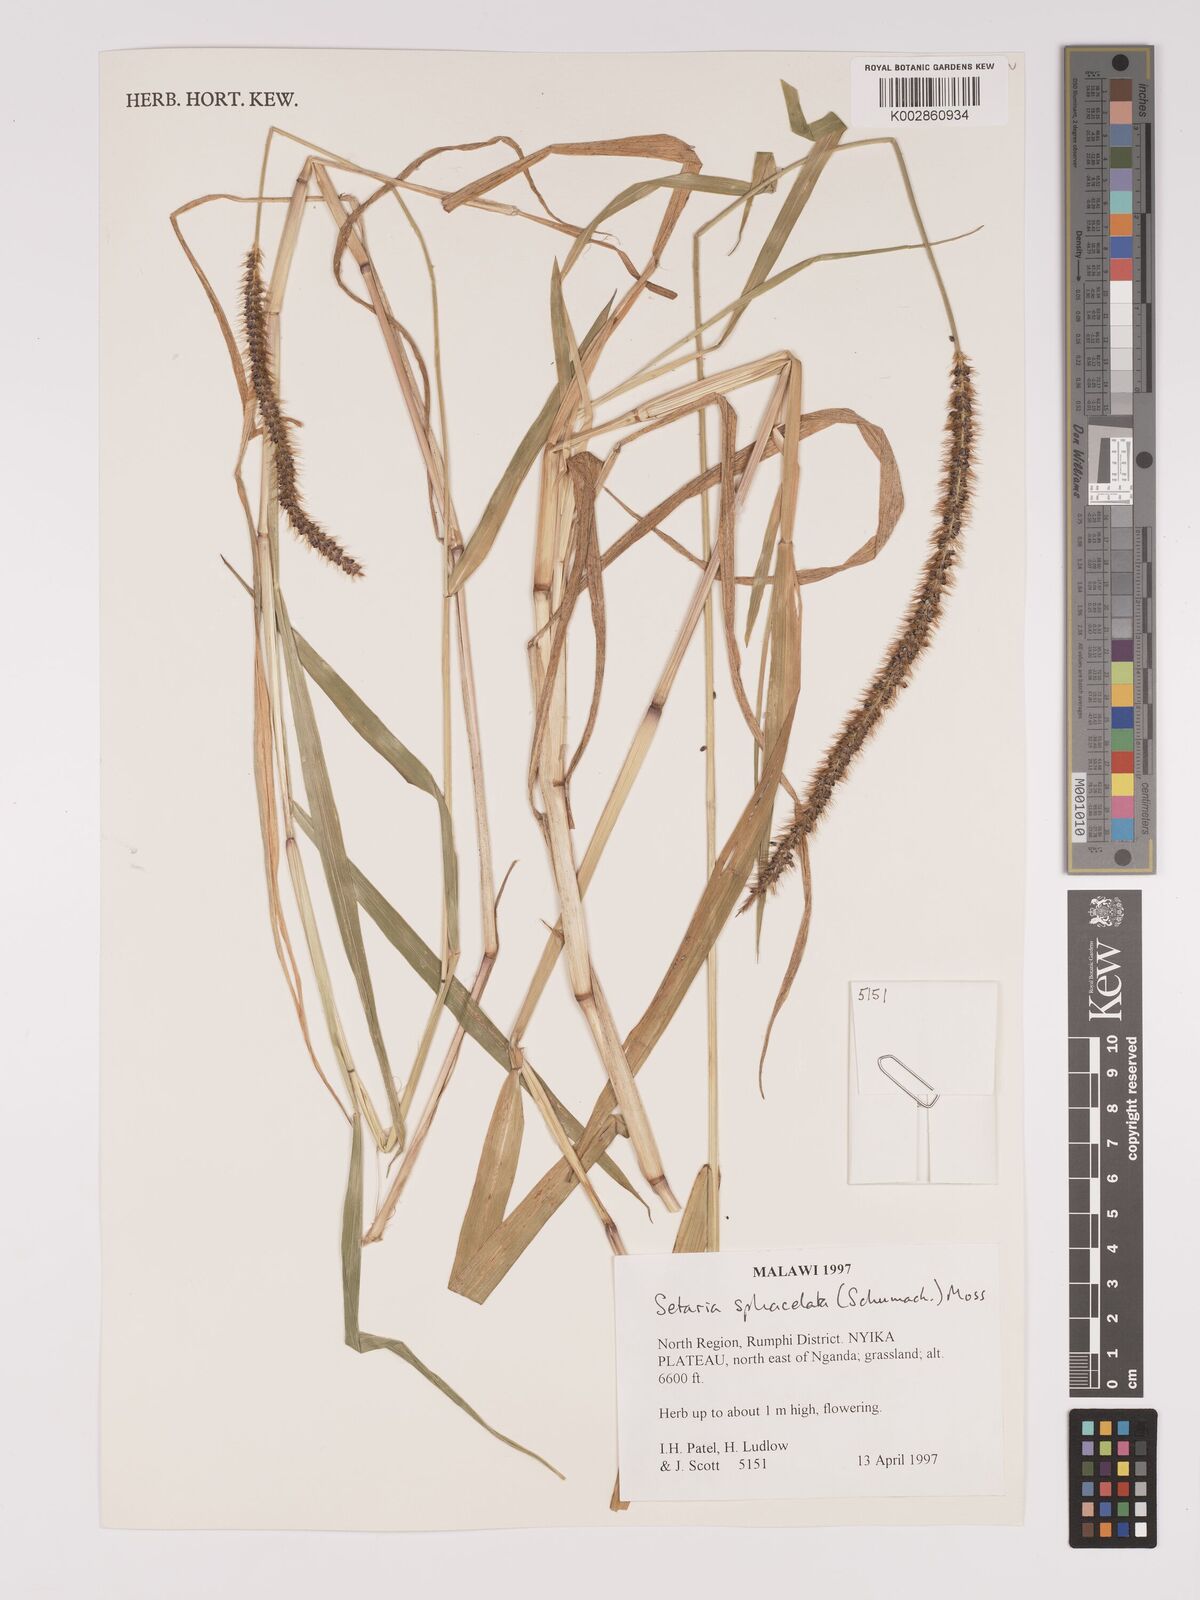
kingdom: Plantae
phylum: Tracheophyta
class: Liliopsida
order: Poales
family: Poaceae
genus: Setaria
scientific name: Setaria sphacelata
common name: African bristlegrass
